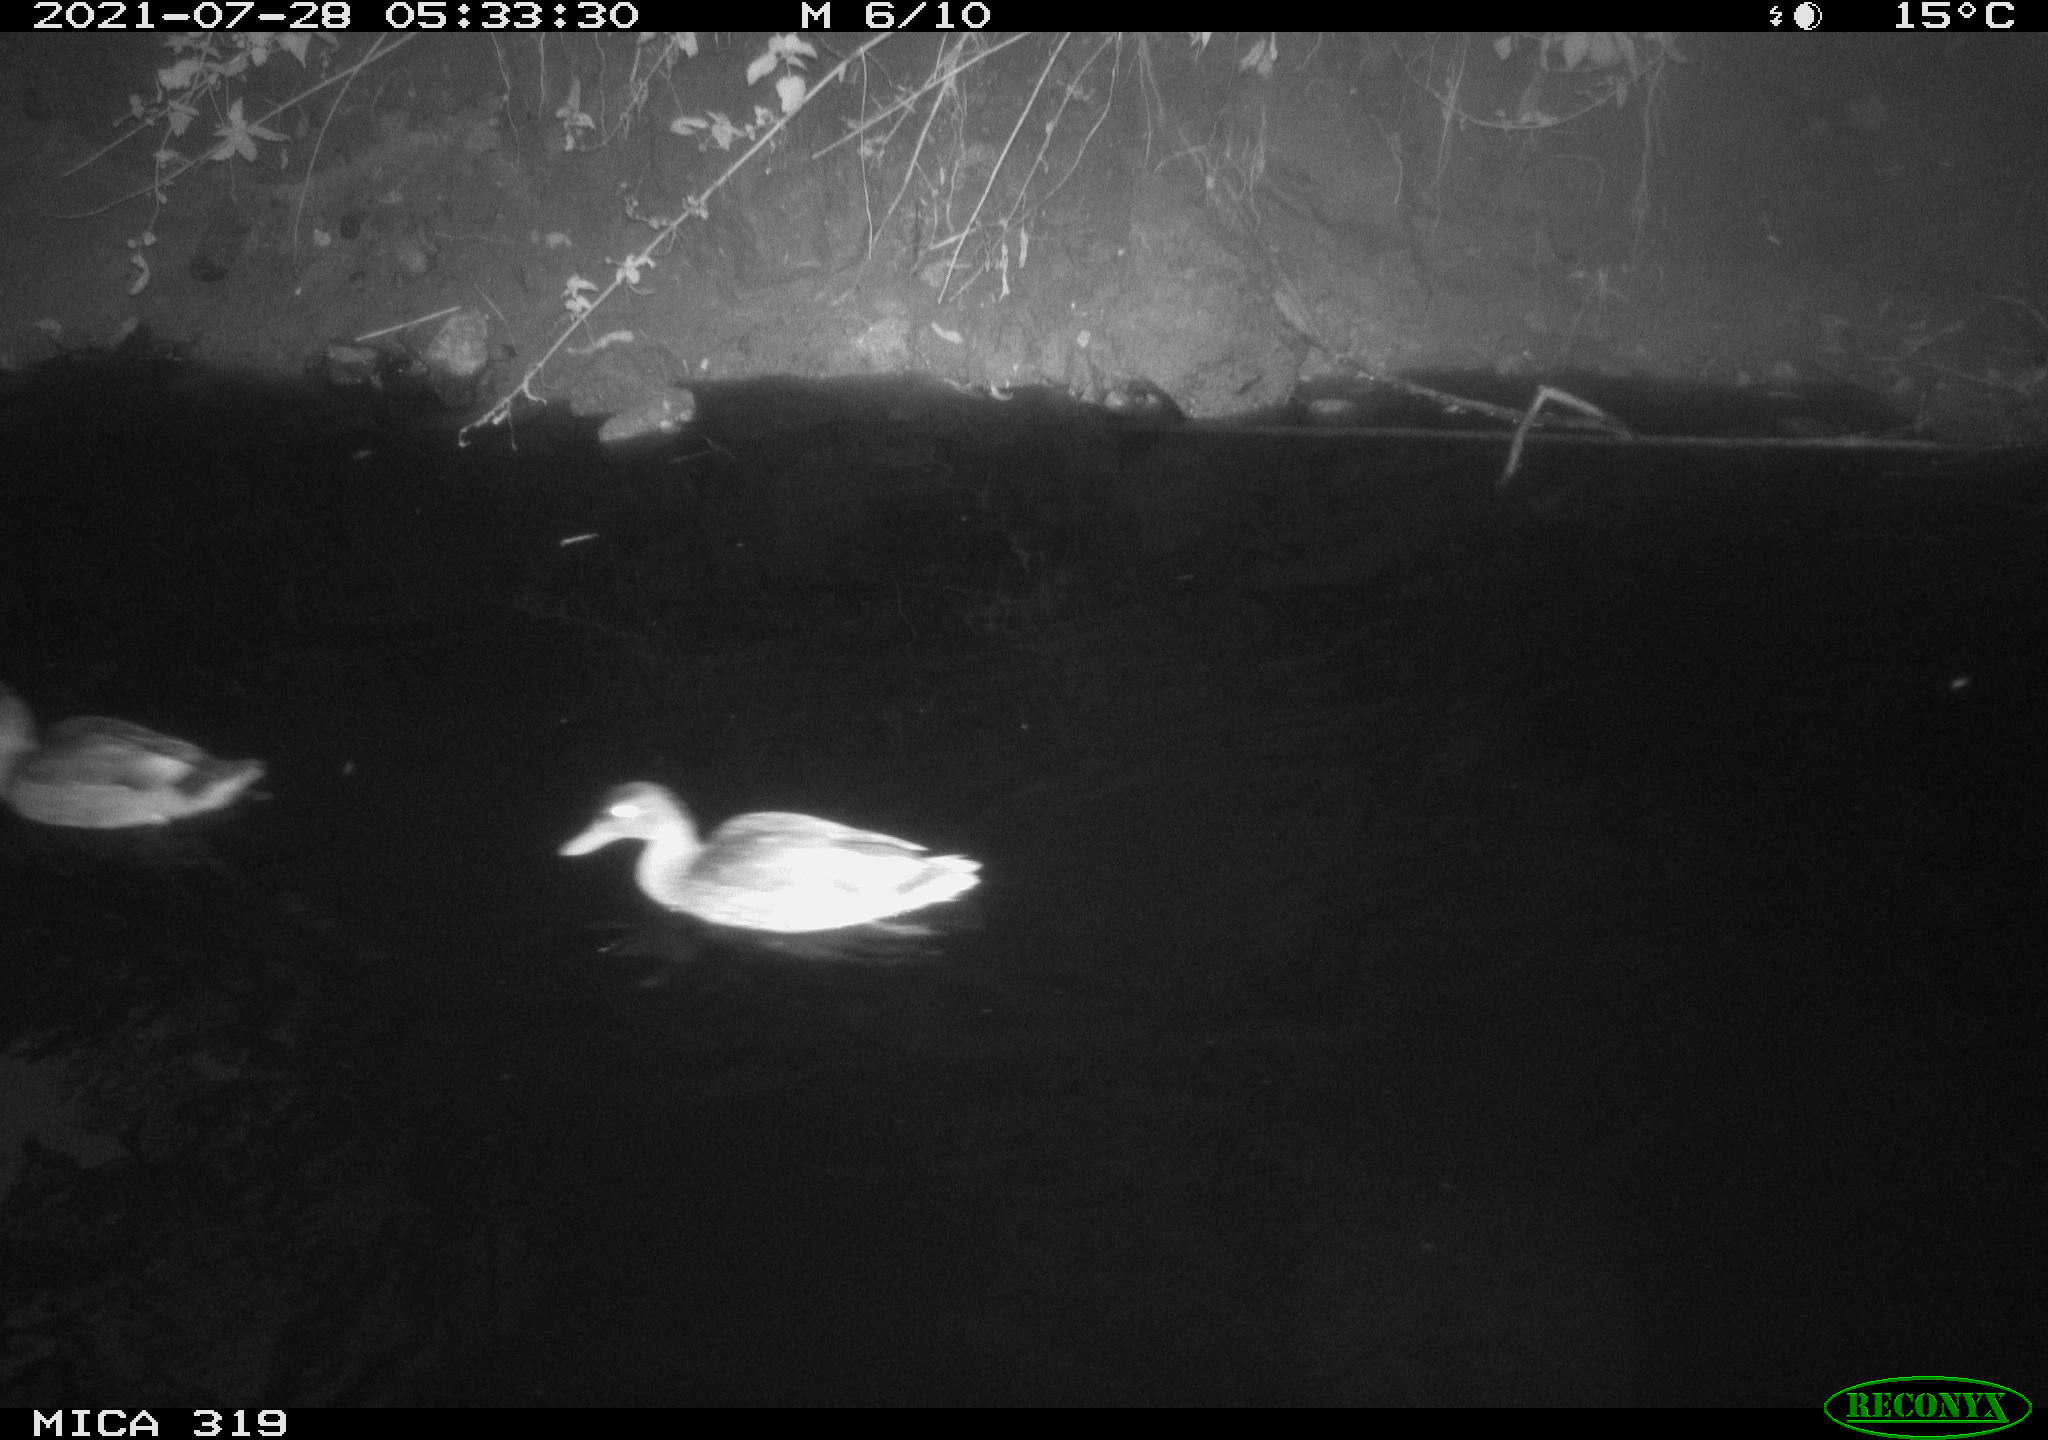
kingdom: Animalia
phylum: Chordata
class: Aves
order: Anseriformes
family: Anatidae
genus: Anas
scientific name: Anas platyrhynchos
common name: Mallard
